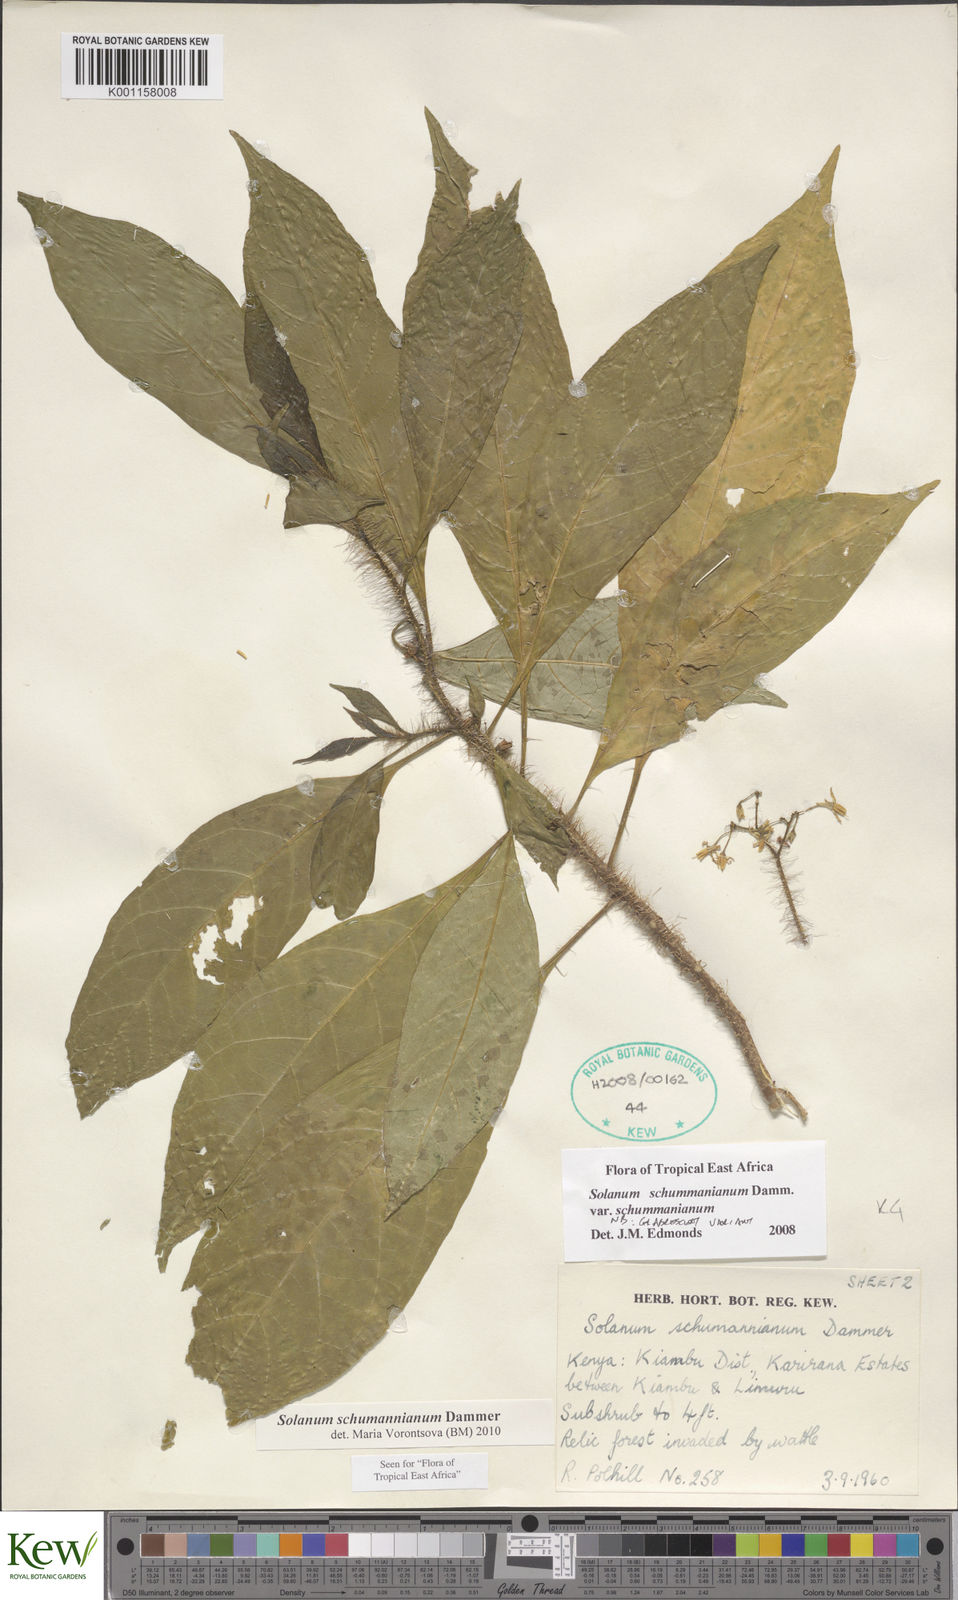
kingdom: Plantae
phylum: Tracheophyta
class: Magnoliopsida
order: Solanales
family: Solanaceae
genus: Solanum
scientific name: Solanum schumannianum
